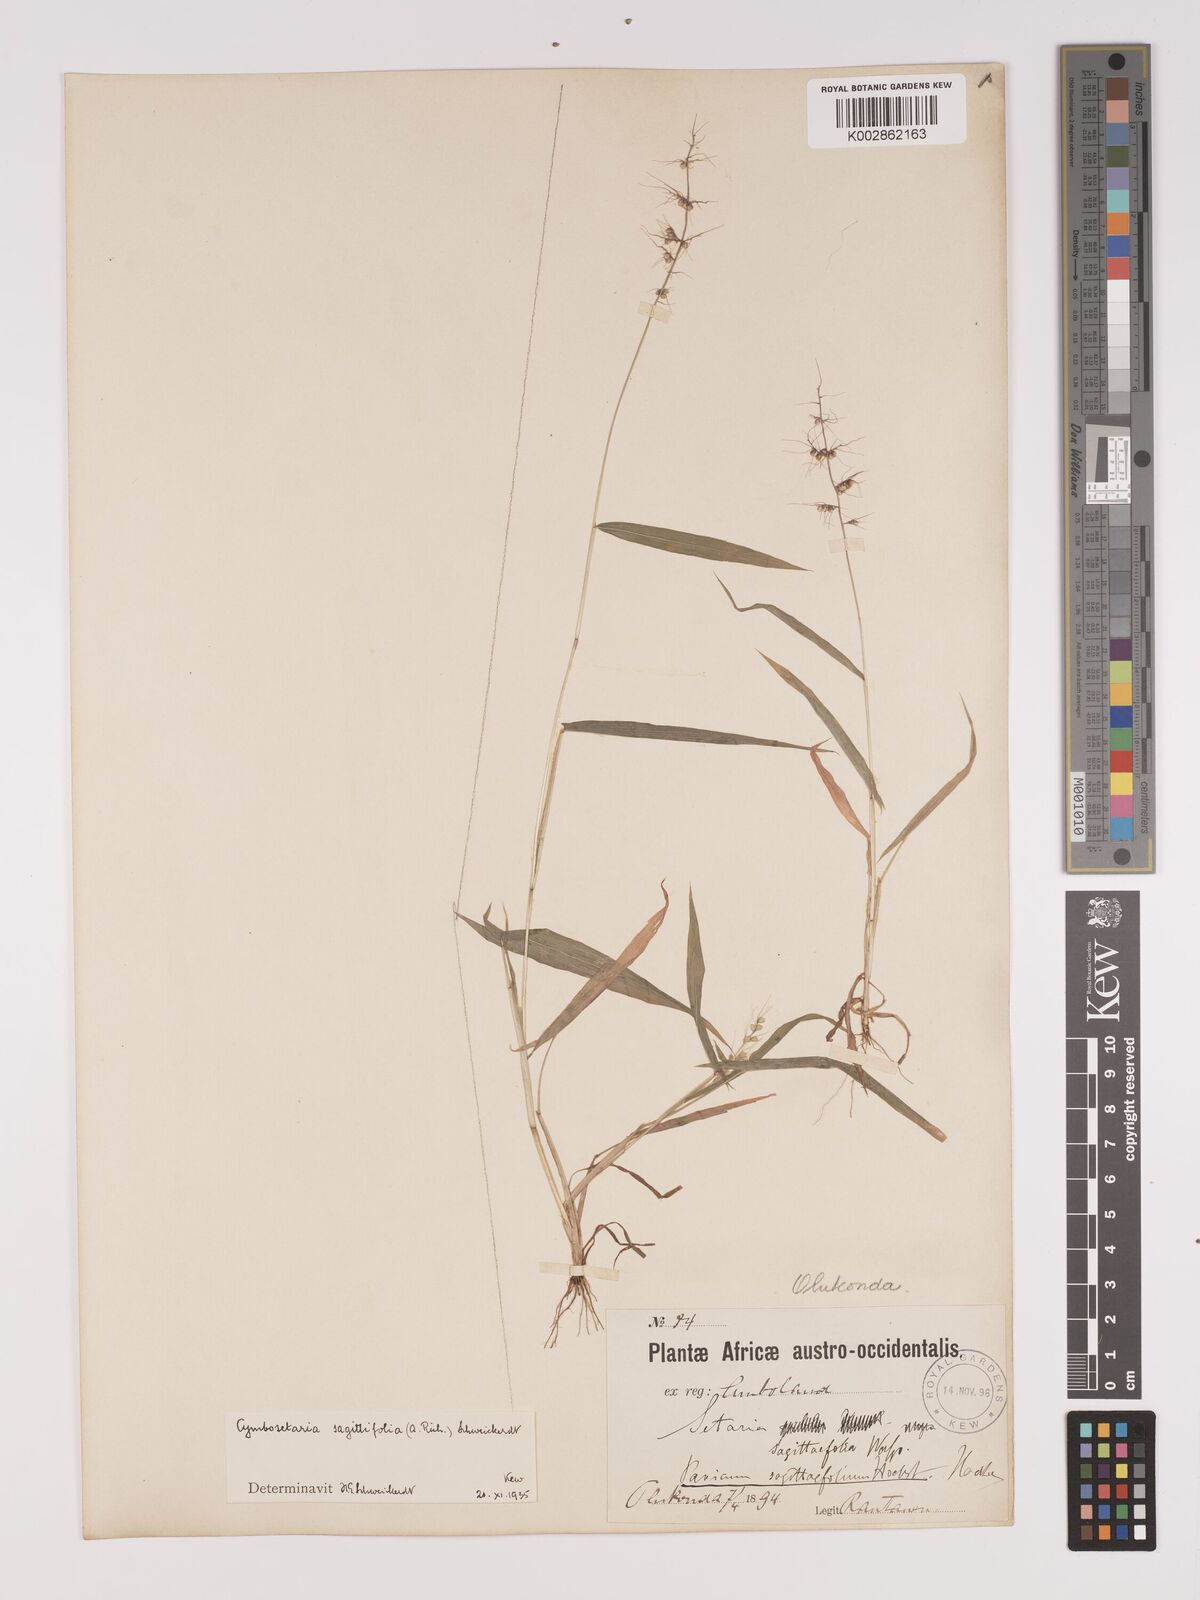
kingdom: Plantae
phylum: Tracheophyta
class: Liliopsida
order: Poales
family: Poaceae
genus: Setaria
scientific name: Setaria sagittifolia
